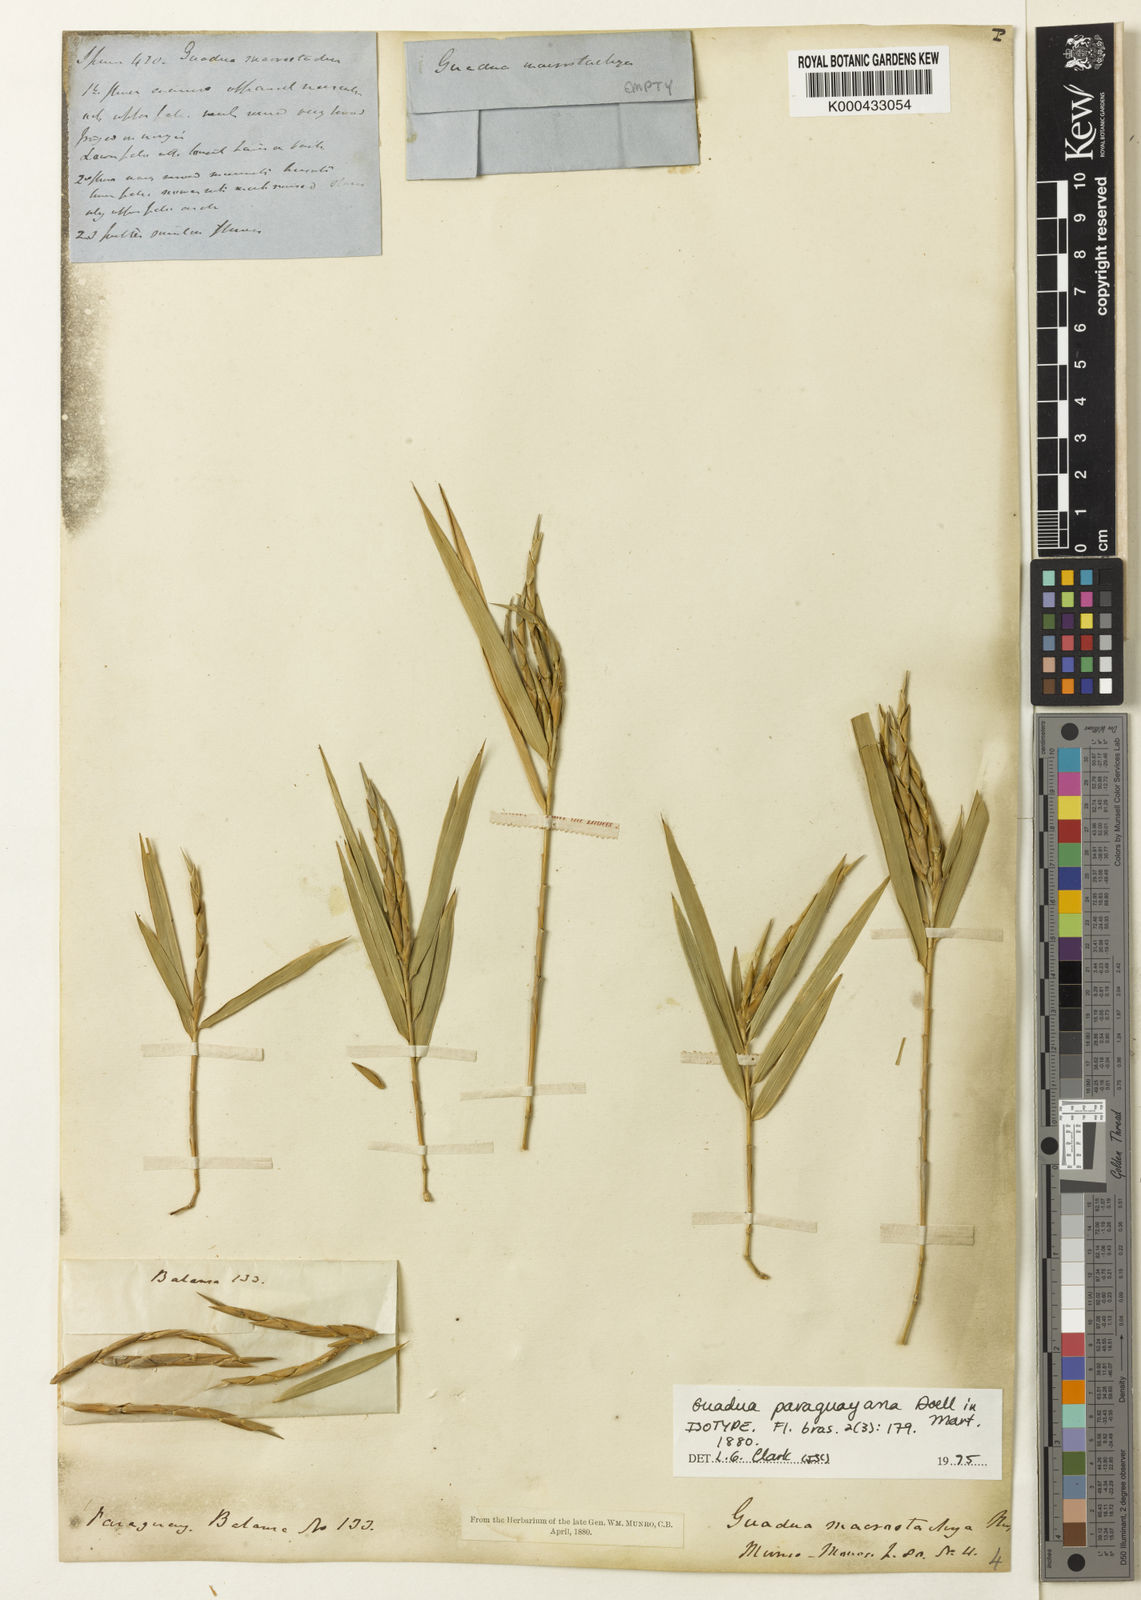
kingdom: Plantae
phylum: Tracheophyta
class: Liliopsida
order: Poales
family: Poaceae
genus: Guadua
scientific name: Guadua
